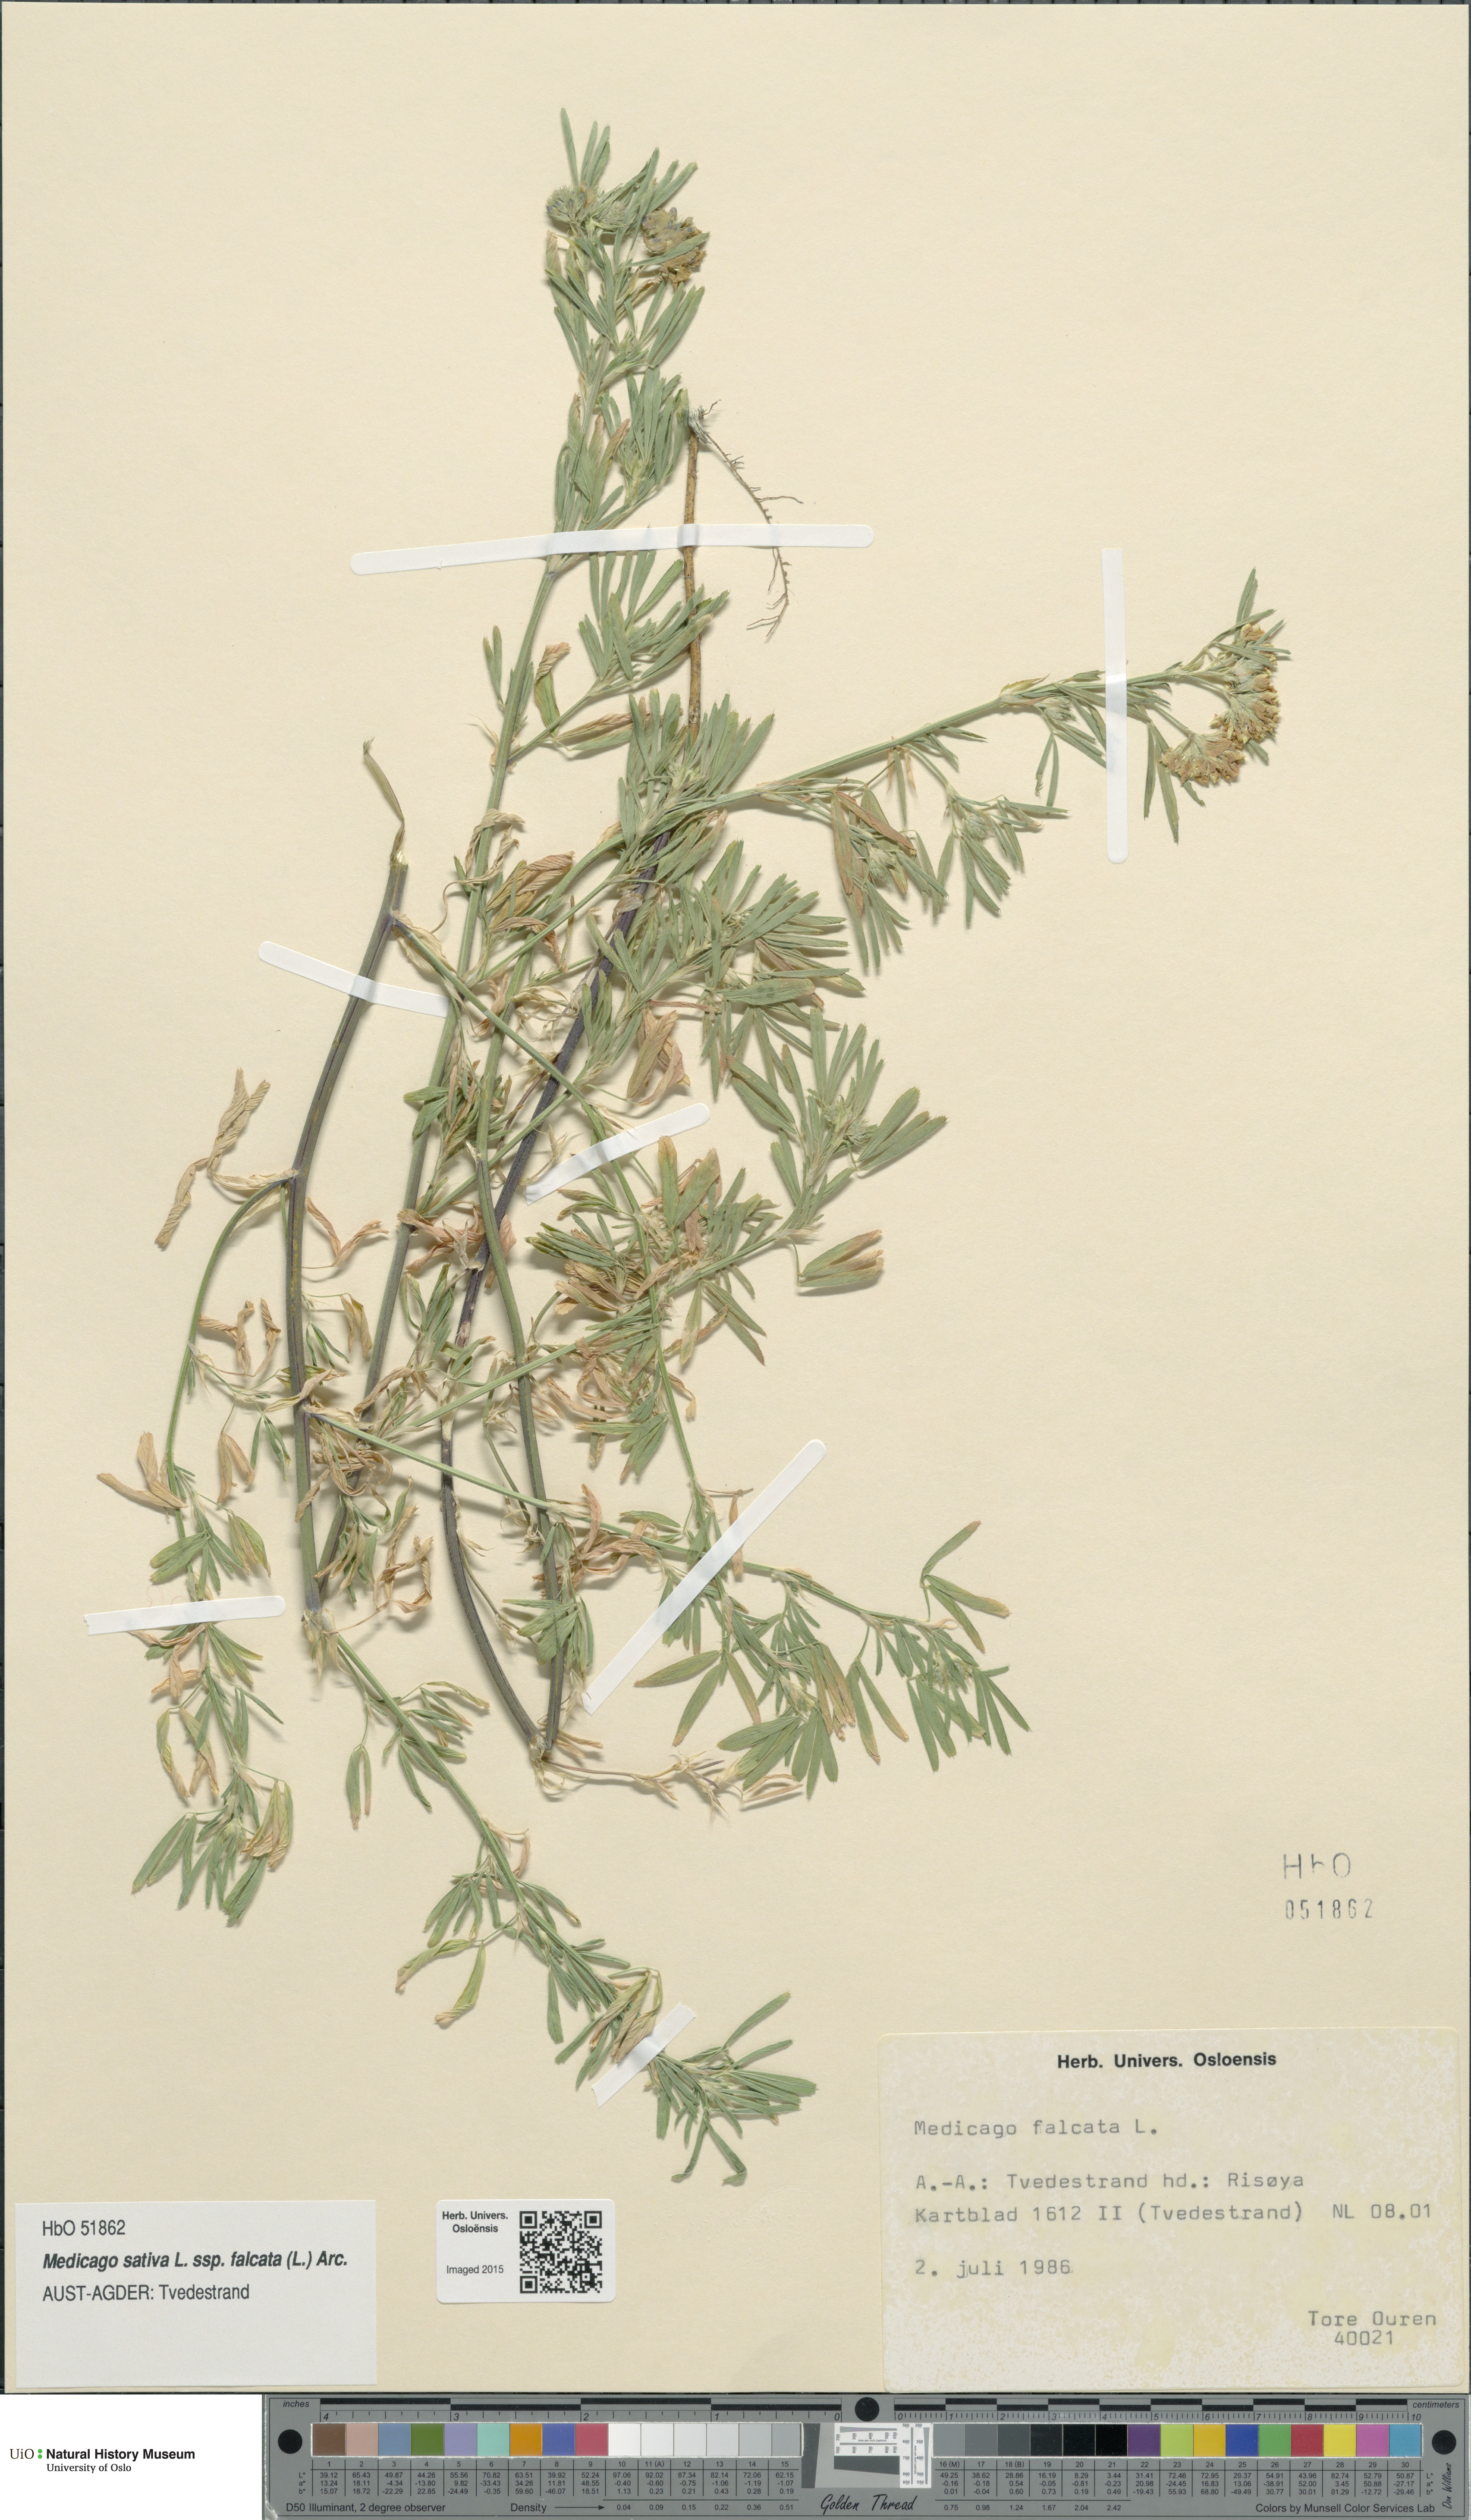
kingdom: Plantae
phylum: Tracheophyta
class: Magnoliopsida
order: Fabales
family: Fabaceae
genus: Medicago
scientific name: Medicago falcata
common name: Sickle medick
